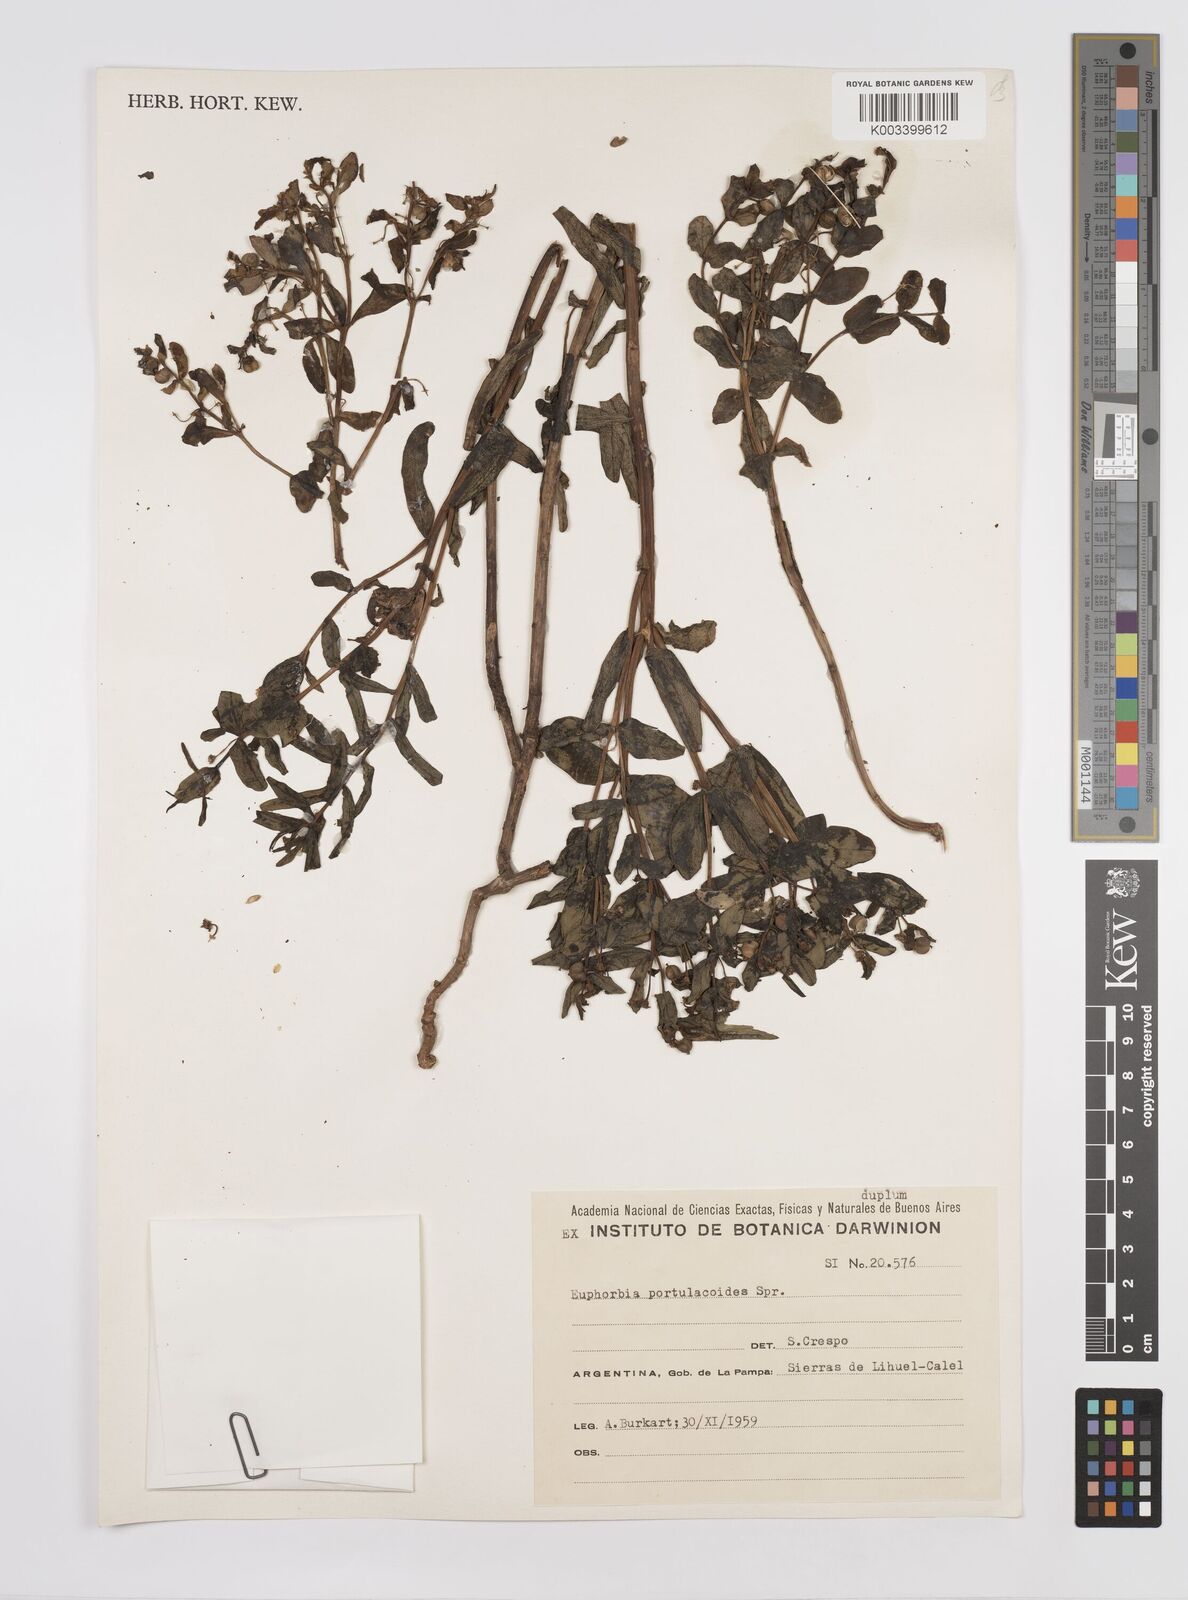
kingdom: Plantae
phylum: Tracheophyta
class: Magnoliopsida
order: Malpighiales
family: Euphorbiaceae
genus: Euphorbia
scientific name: Euphorbia portulacoides
